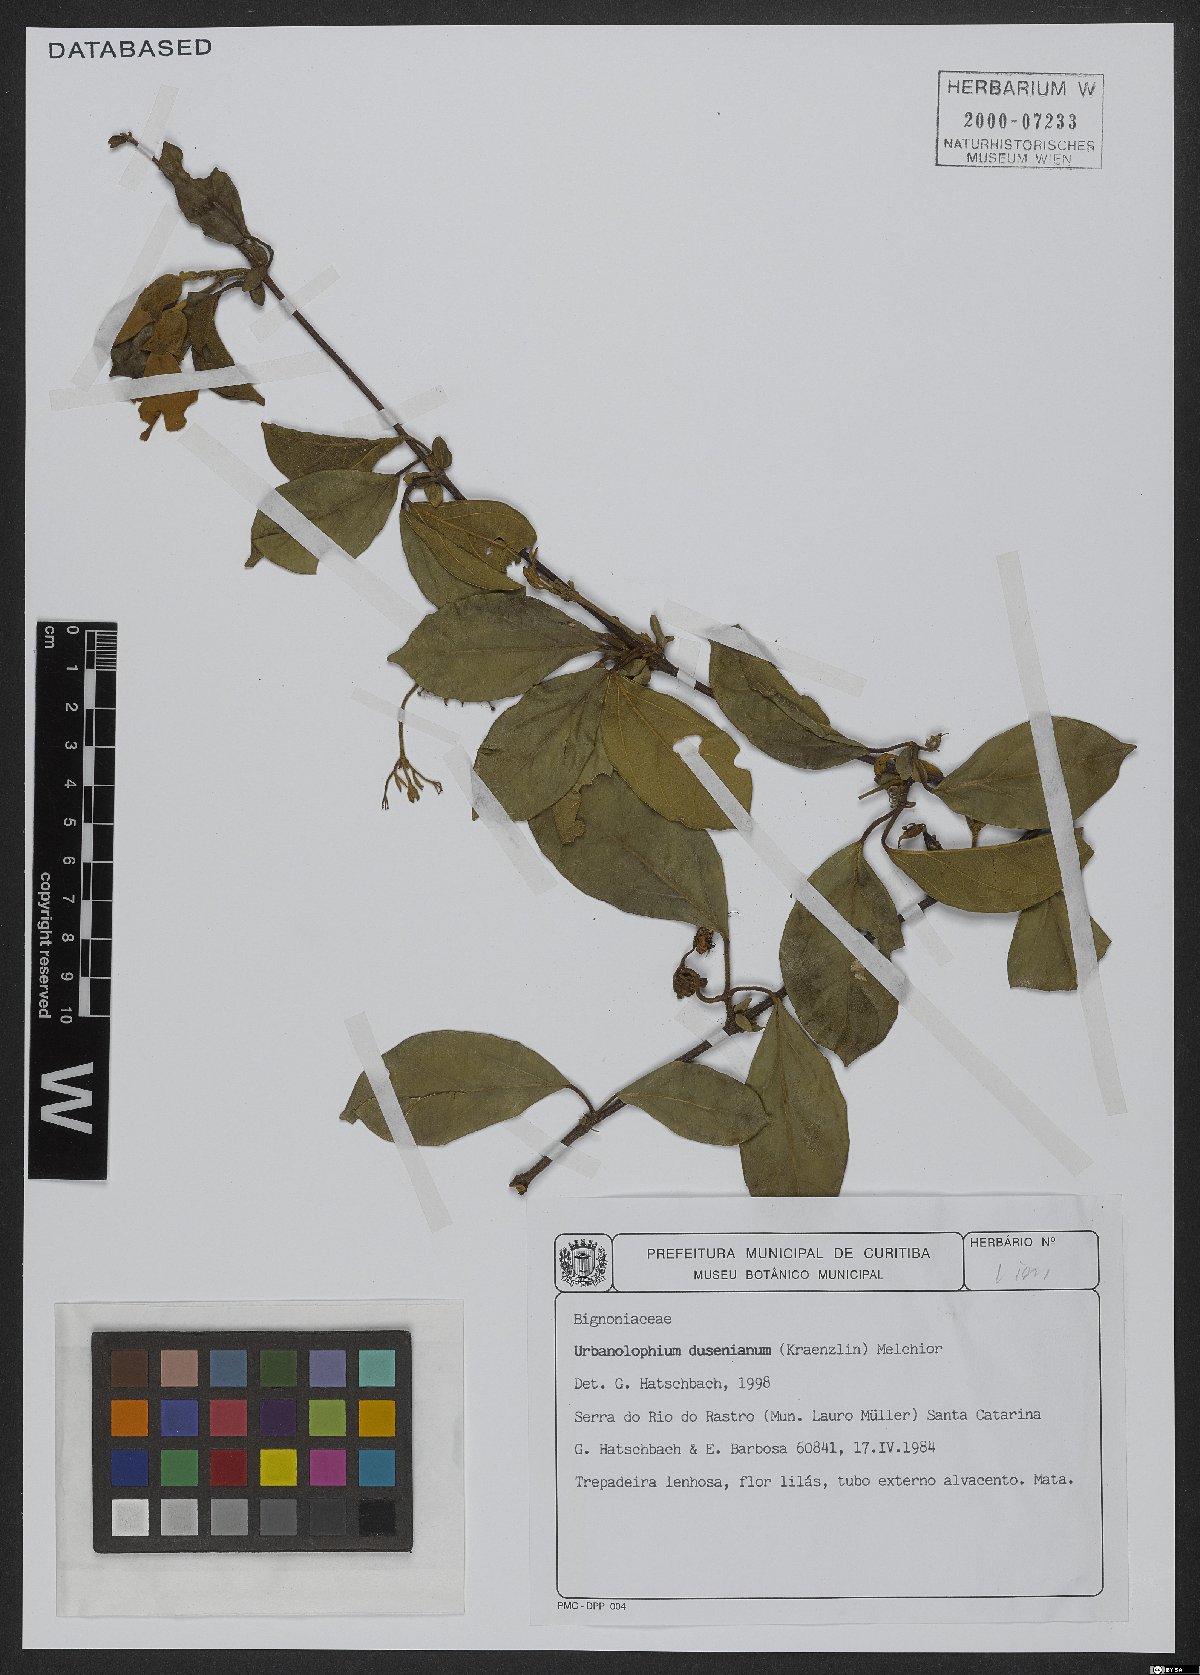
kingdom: Plantae
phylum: Tracheophyta
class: Magnoliopsida
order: Lamiales
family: Bignoniaceae
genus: Amphilophium
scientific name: Amphilophium dusenianum
